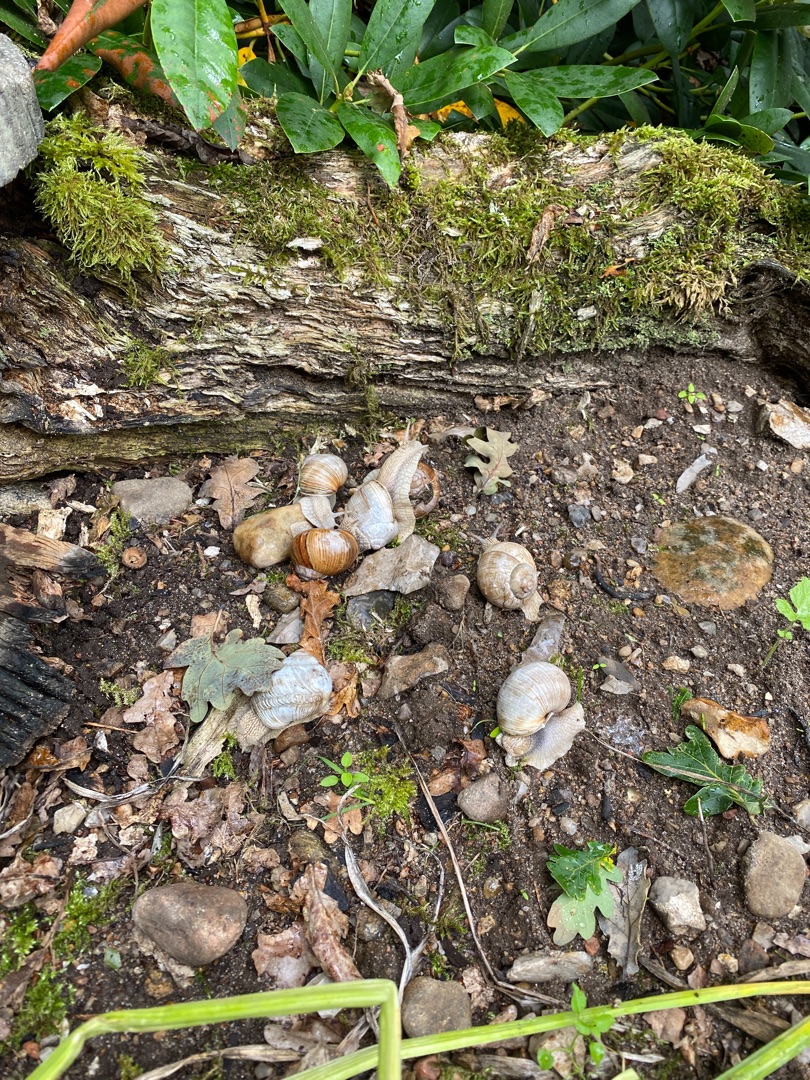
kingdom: Animalia
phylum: Mollusca
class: Gastropoda
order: Stylommatophora
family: Helicidae
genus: Helix
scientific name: Helix pomatia
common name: Vinbjergsnegl
